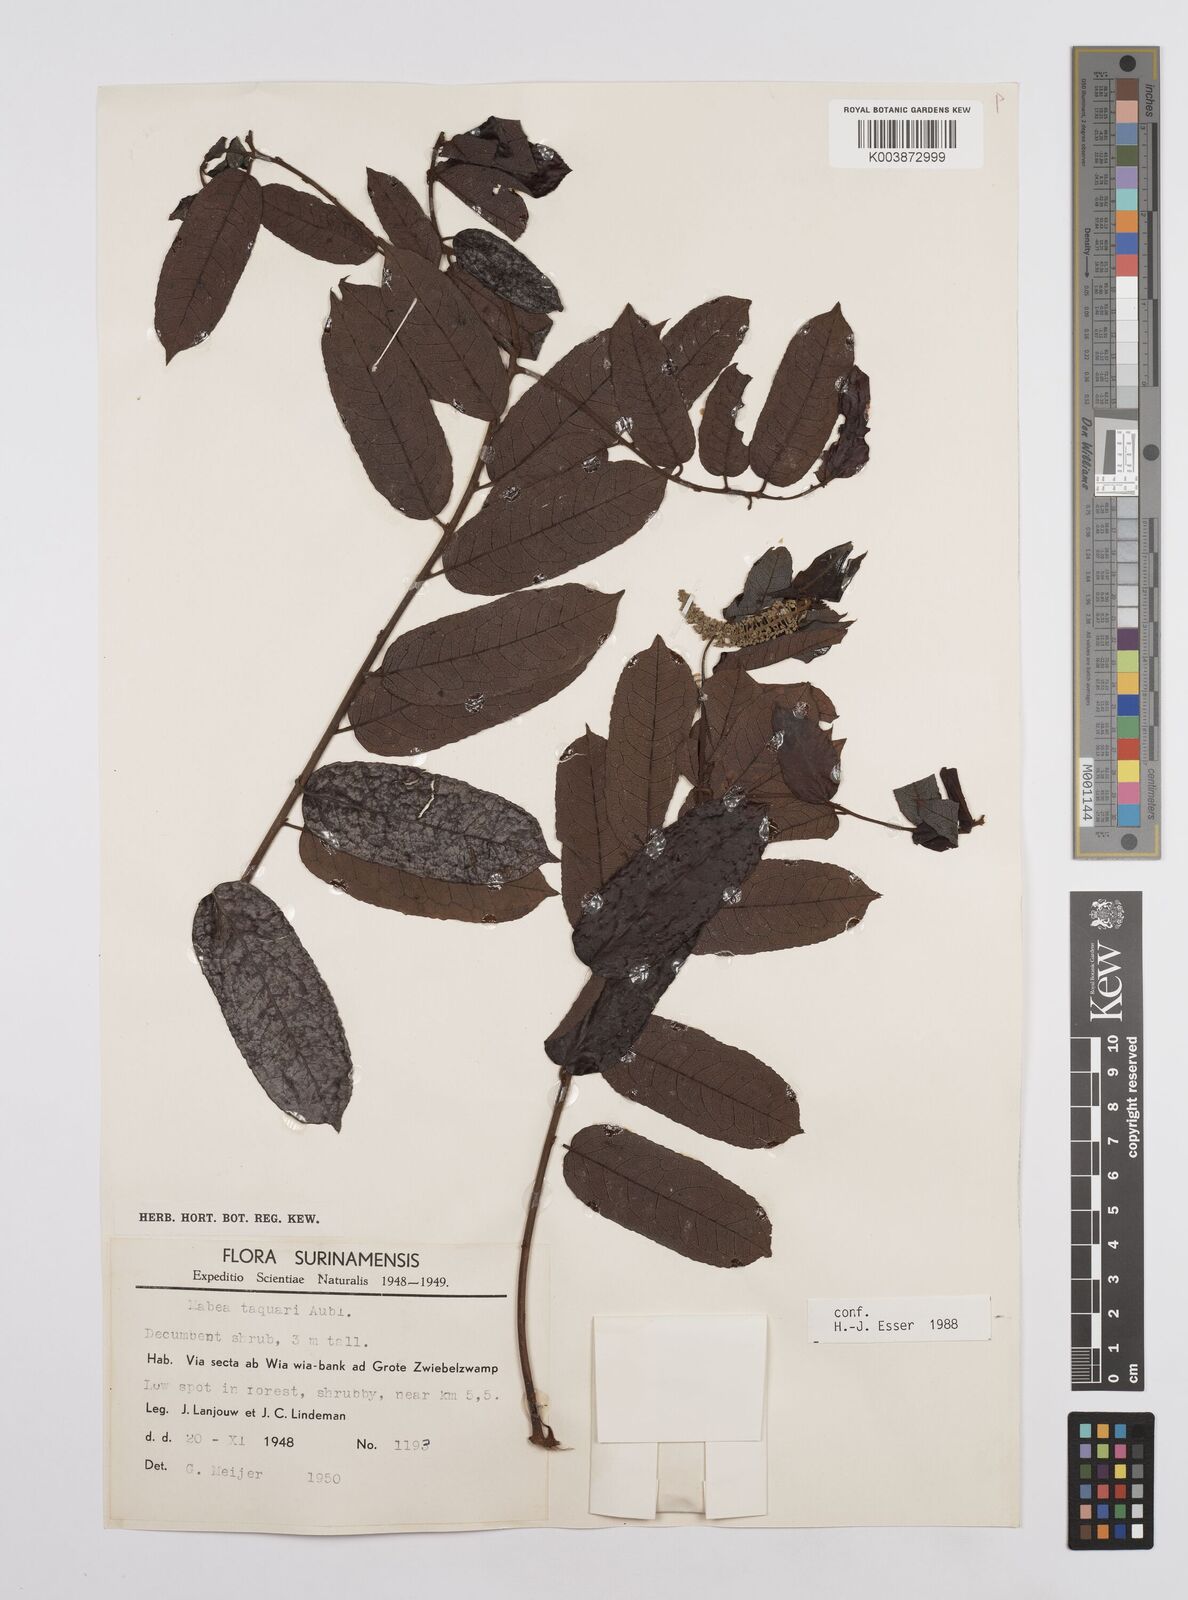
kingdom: Plantae
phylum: Tracheophyta
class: Magnoliopsida
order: Malpighiales
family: Euphorbiaceae
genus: Mabea
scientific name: Mabea taquari
